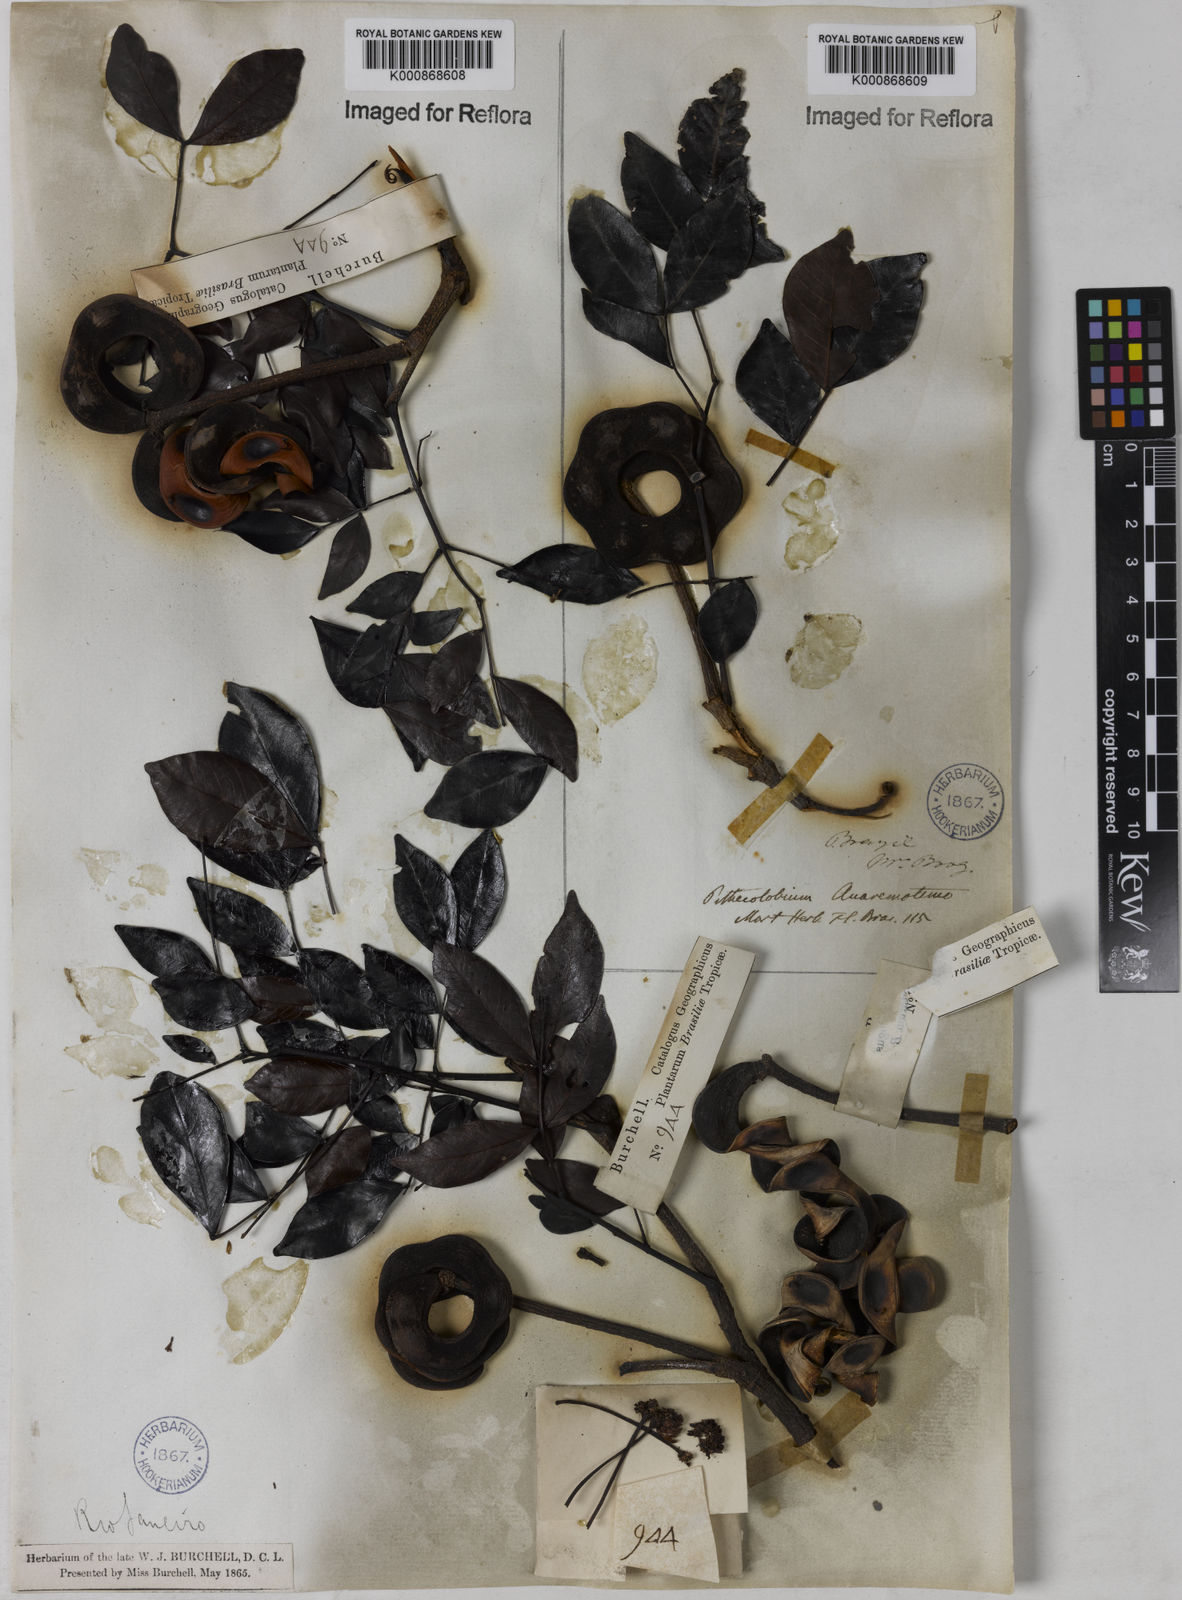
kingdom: Plantae
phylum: Tracheophyta
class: Magnoliopsida
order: Fabales
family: Fabaceae
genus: Abarema
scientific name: Abarema
